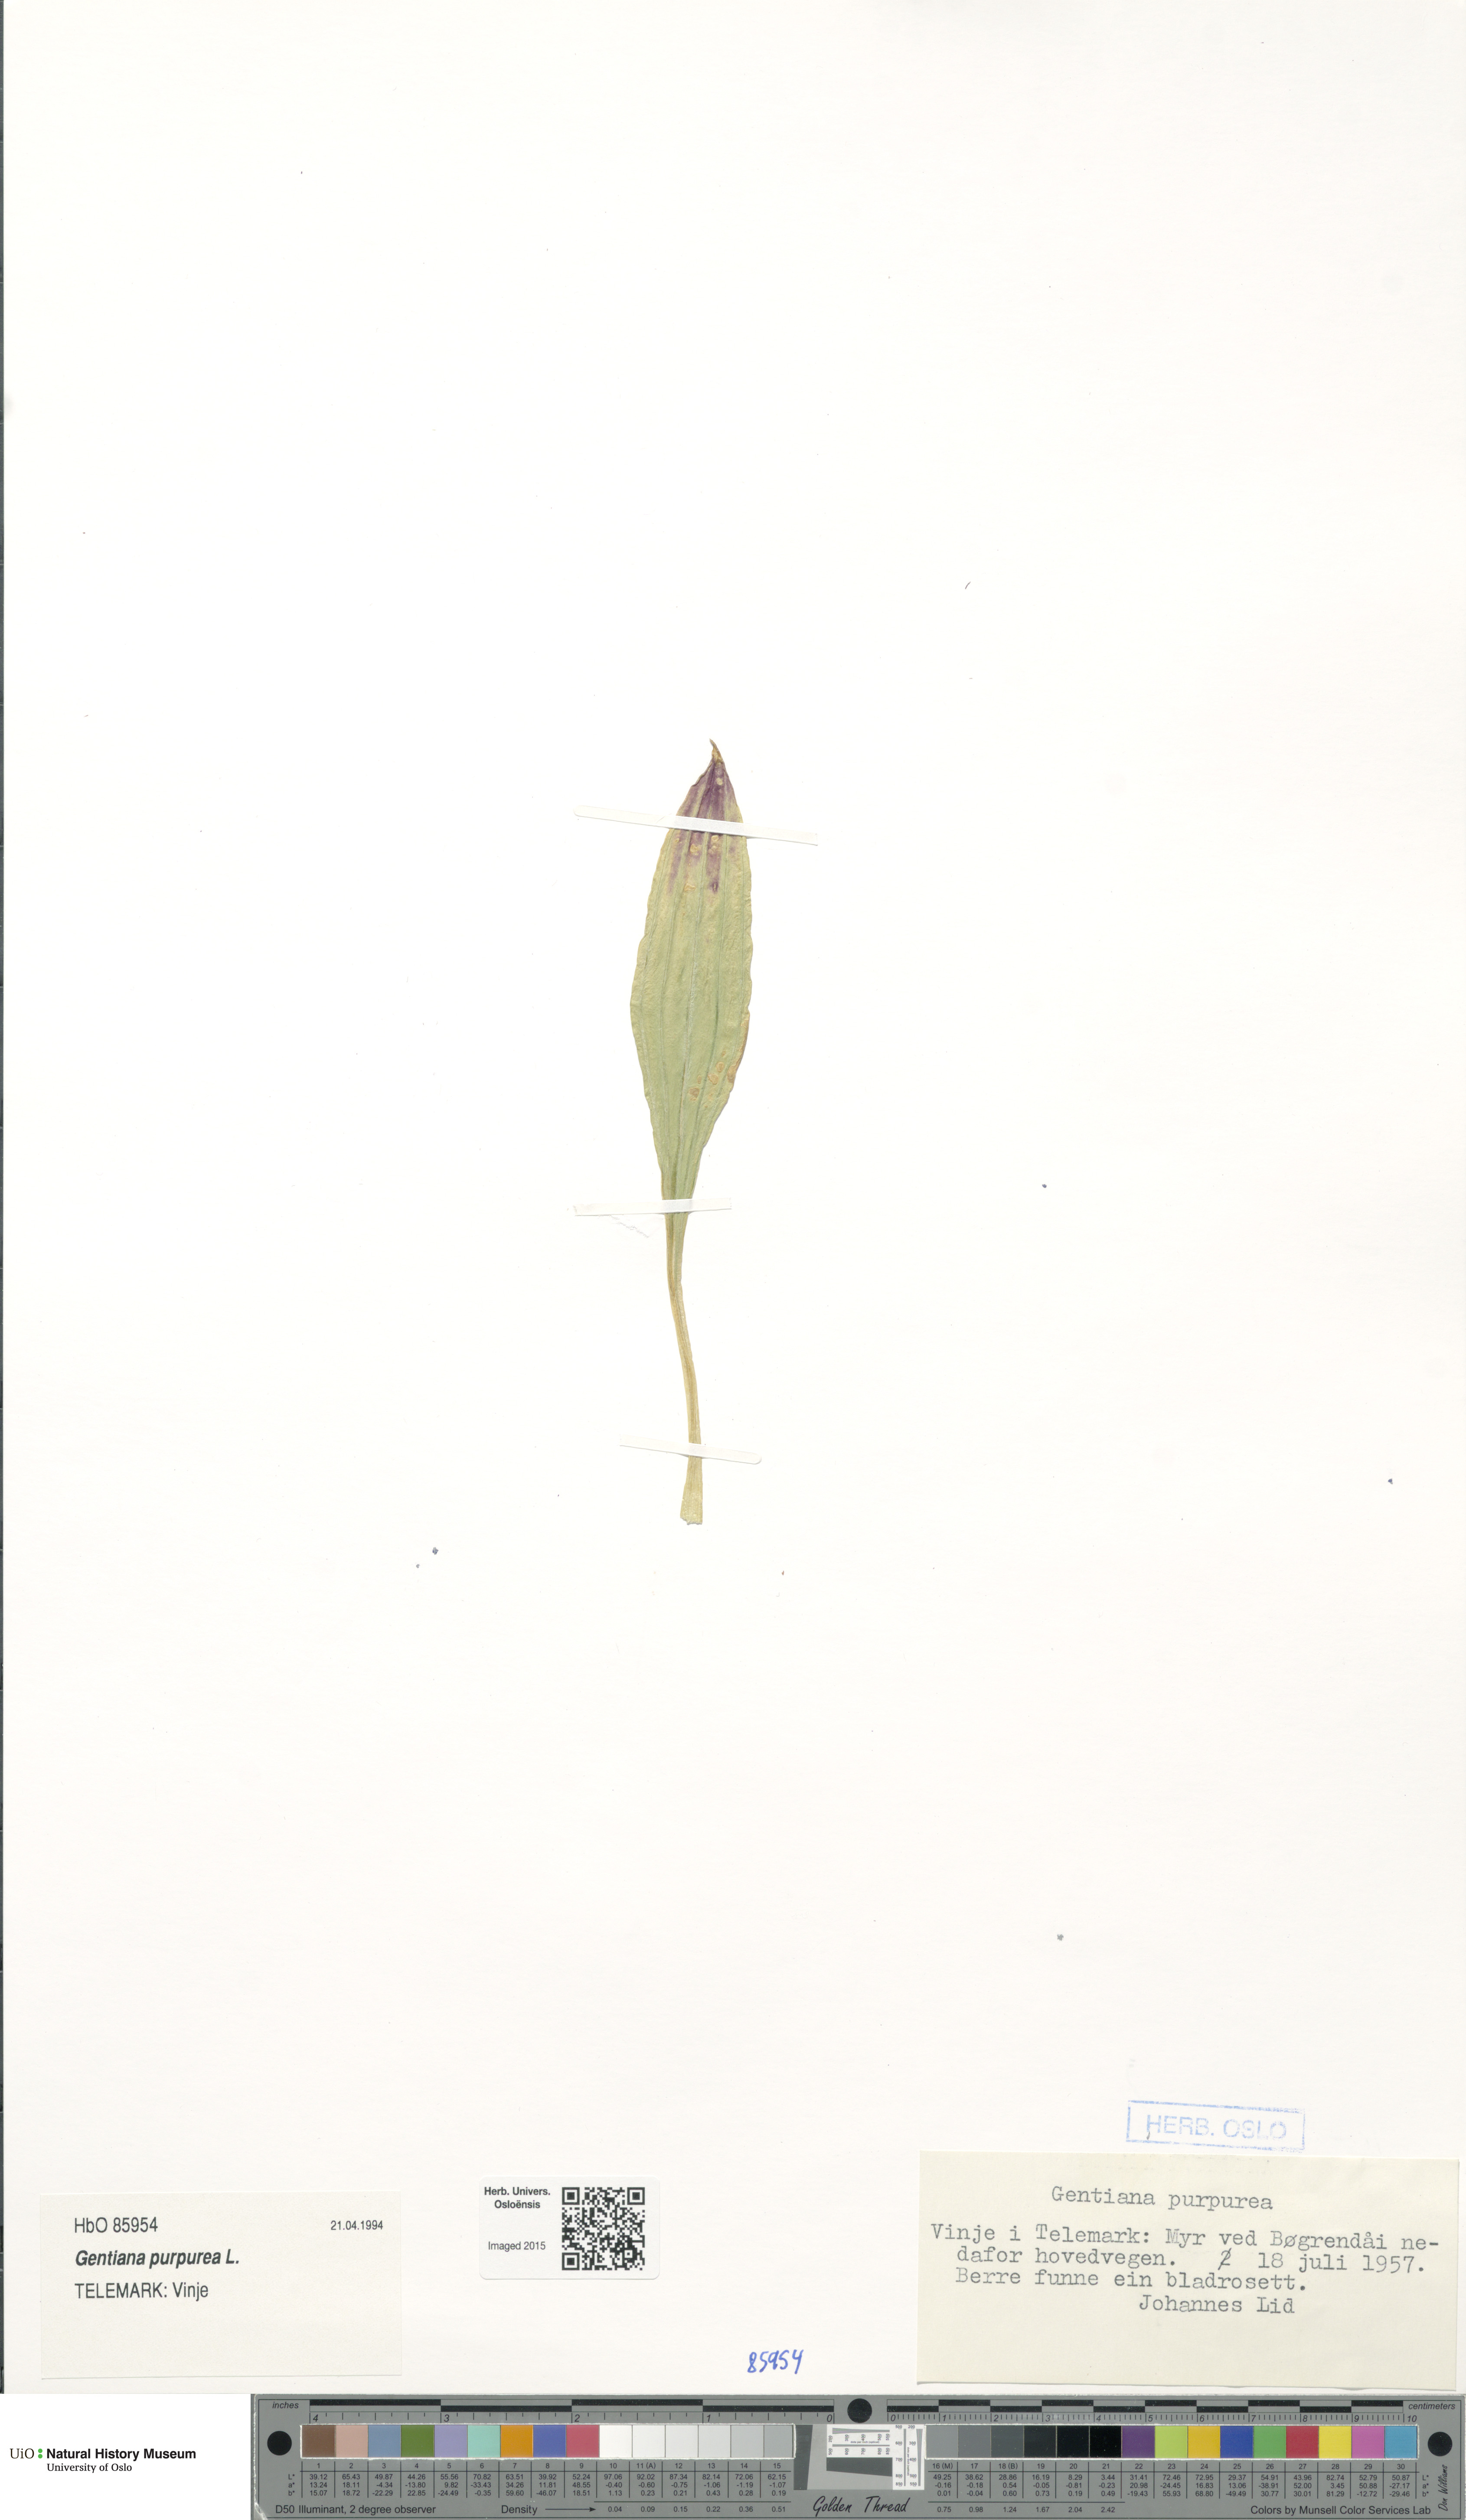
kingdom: Plantae
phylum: Tracheophyta
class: Magnoliopsida
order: Gentianales
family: Gentianaceae
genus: Gentiana
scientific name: Gentiana purpurea
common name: Purple gentian
